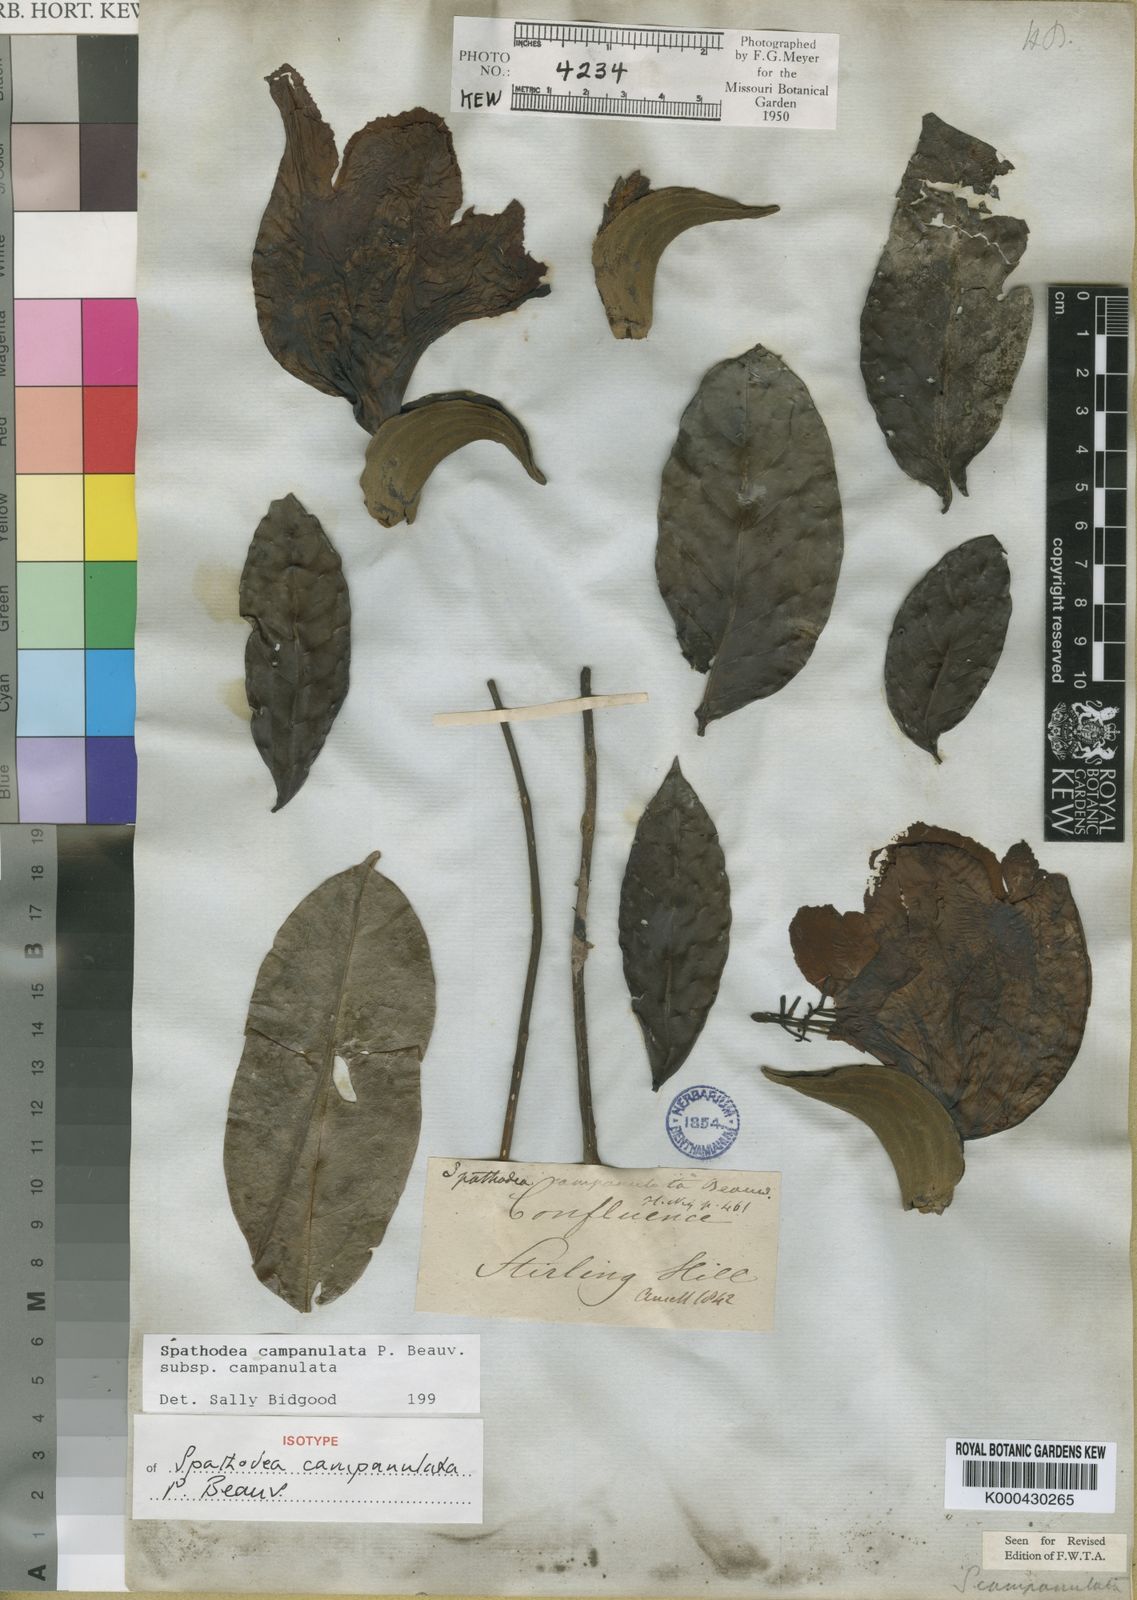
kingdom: Plantae
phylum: Tracheophyta
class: Magnoliopsida
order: Lamiales
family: Bignoniaceae
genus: Spathodea
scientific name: Spathodea campanulata
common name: African tuliptree
